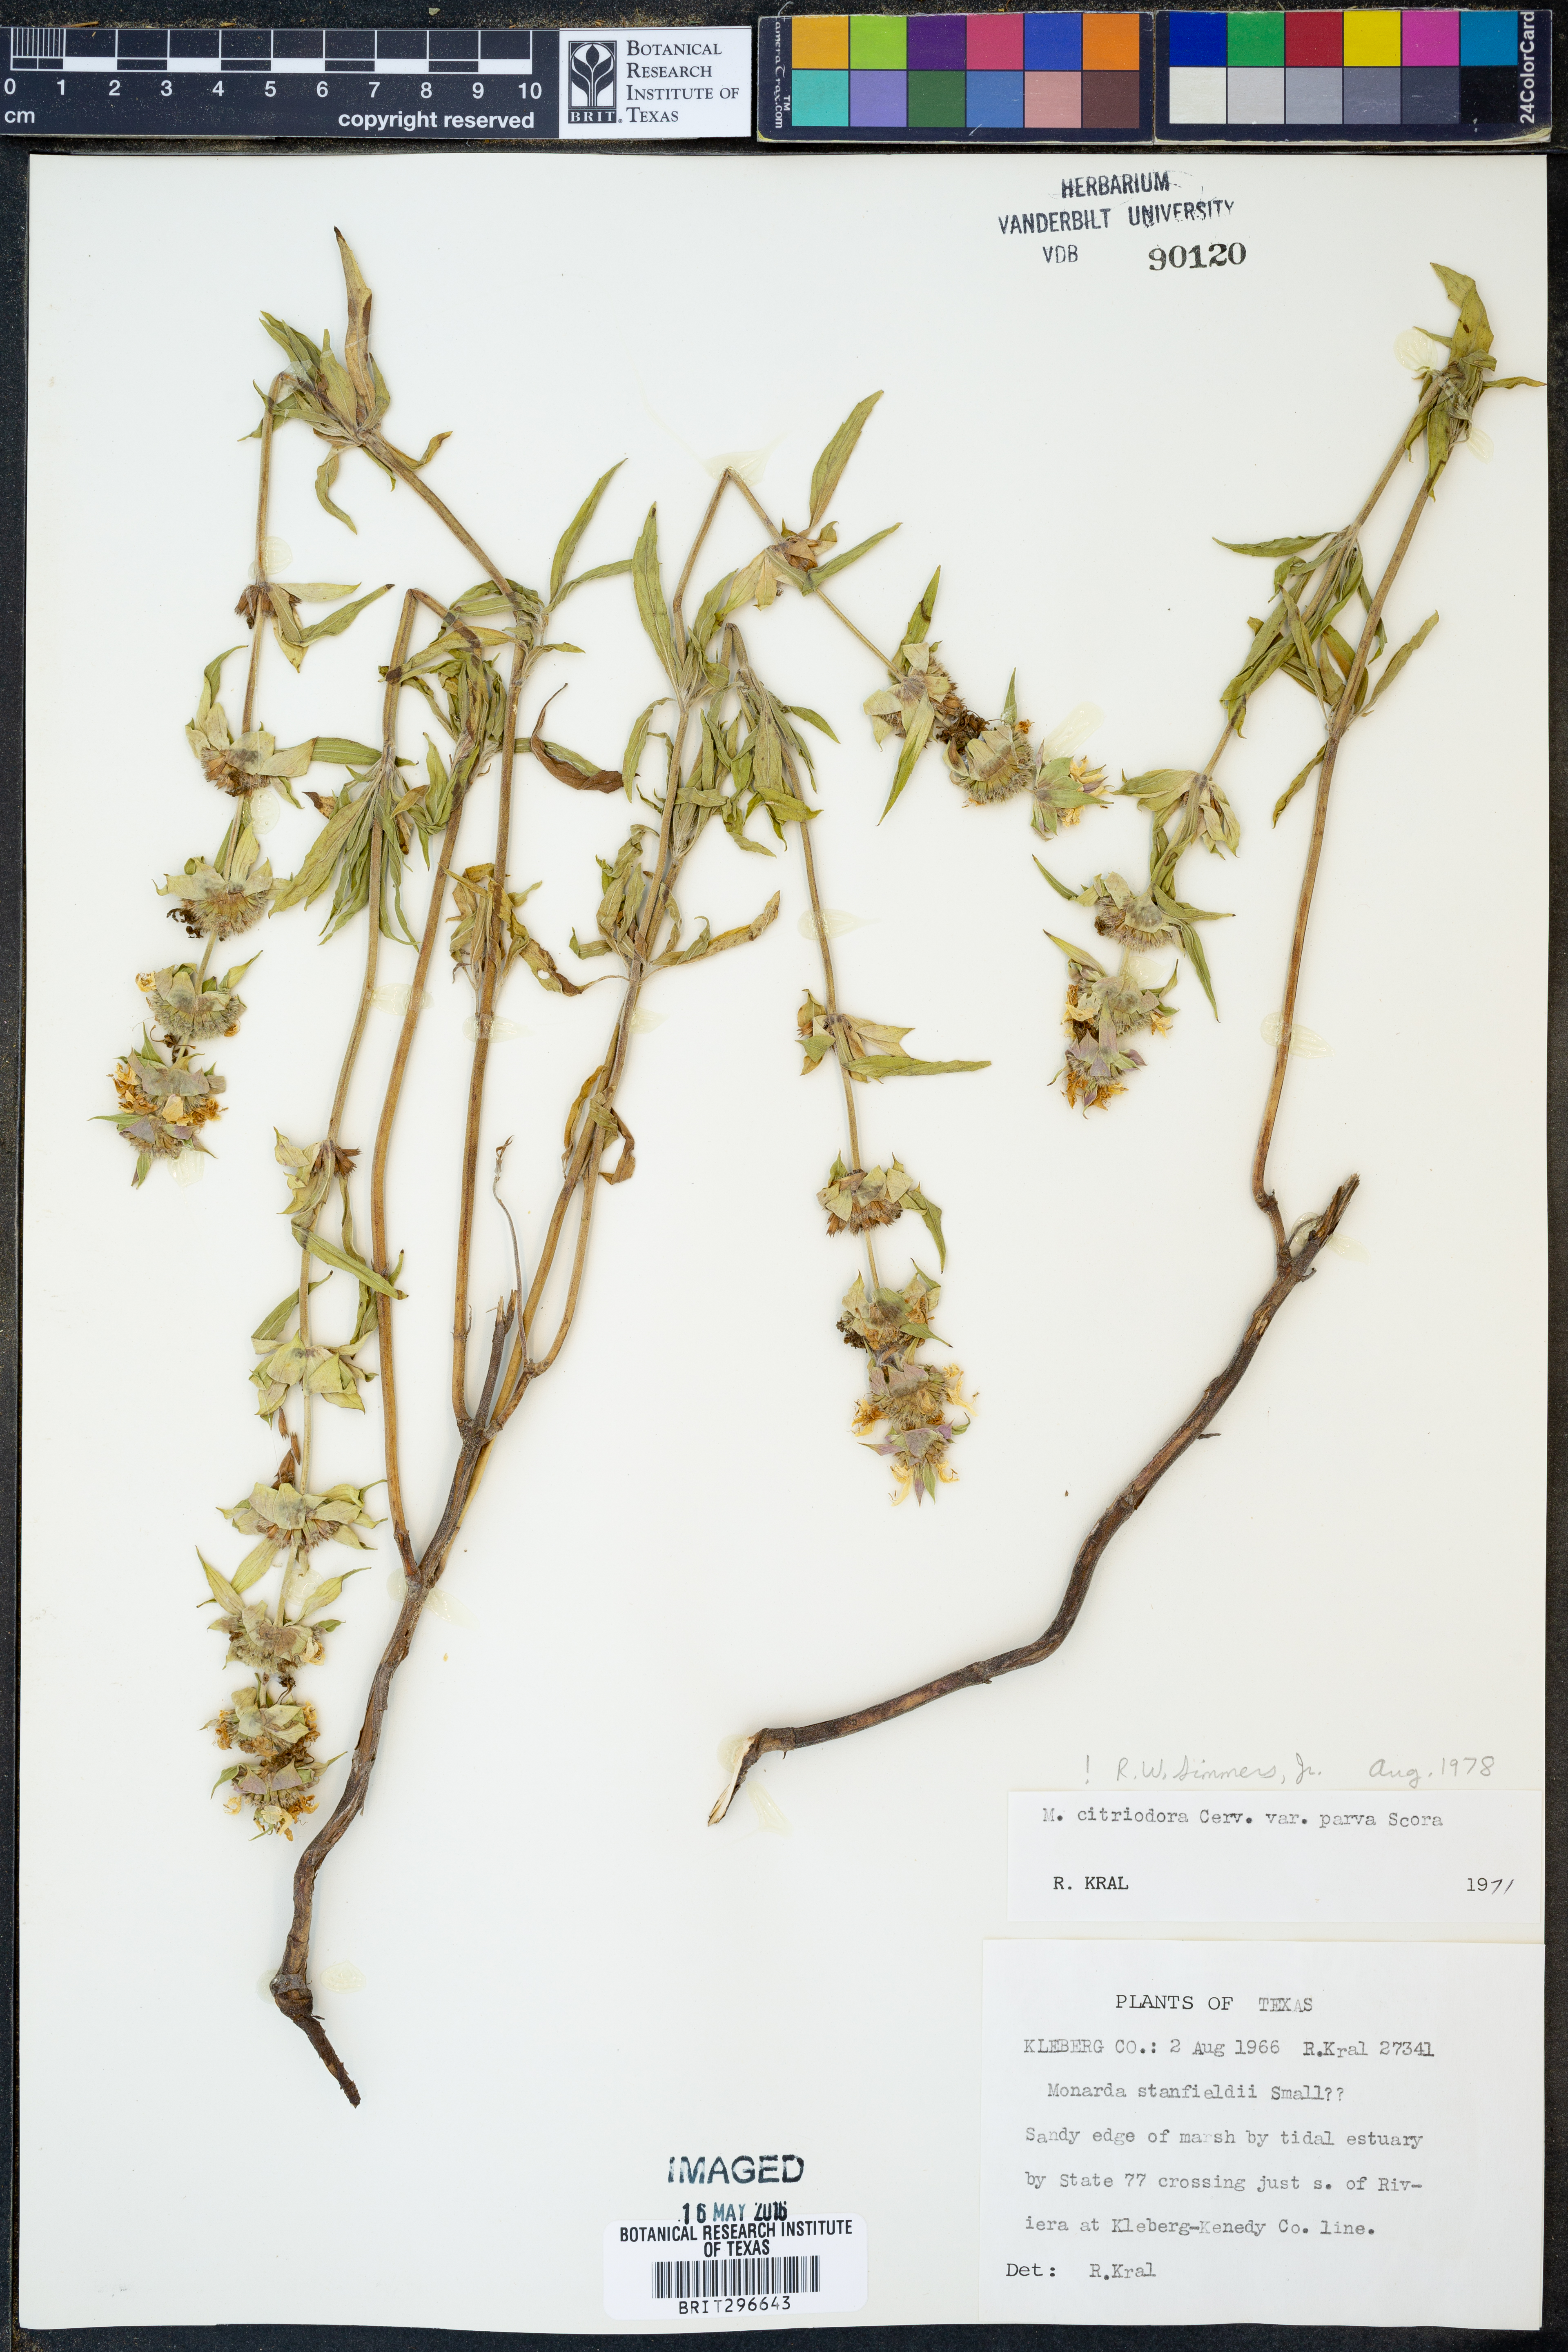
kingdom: Plantae
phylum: Tracheophyta
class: Magnoliopsida
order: Lamiales
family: Lamiaceae
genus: Monarda
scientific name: Monarda citriodora
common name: Lemon beebalm
